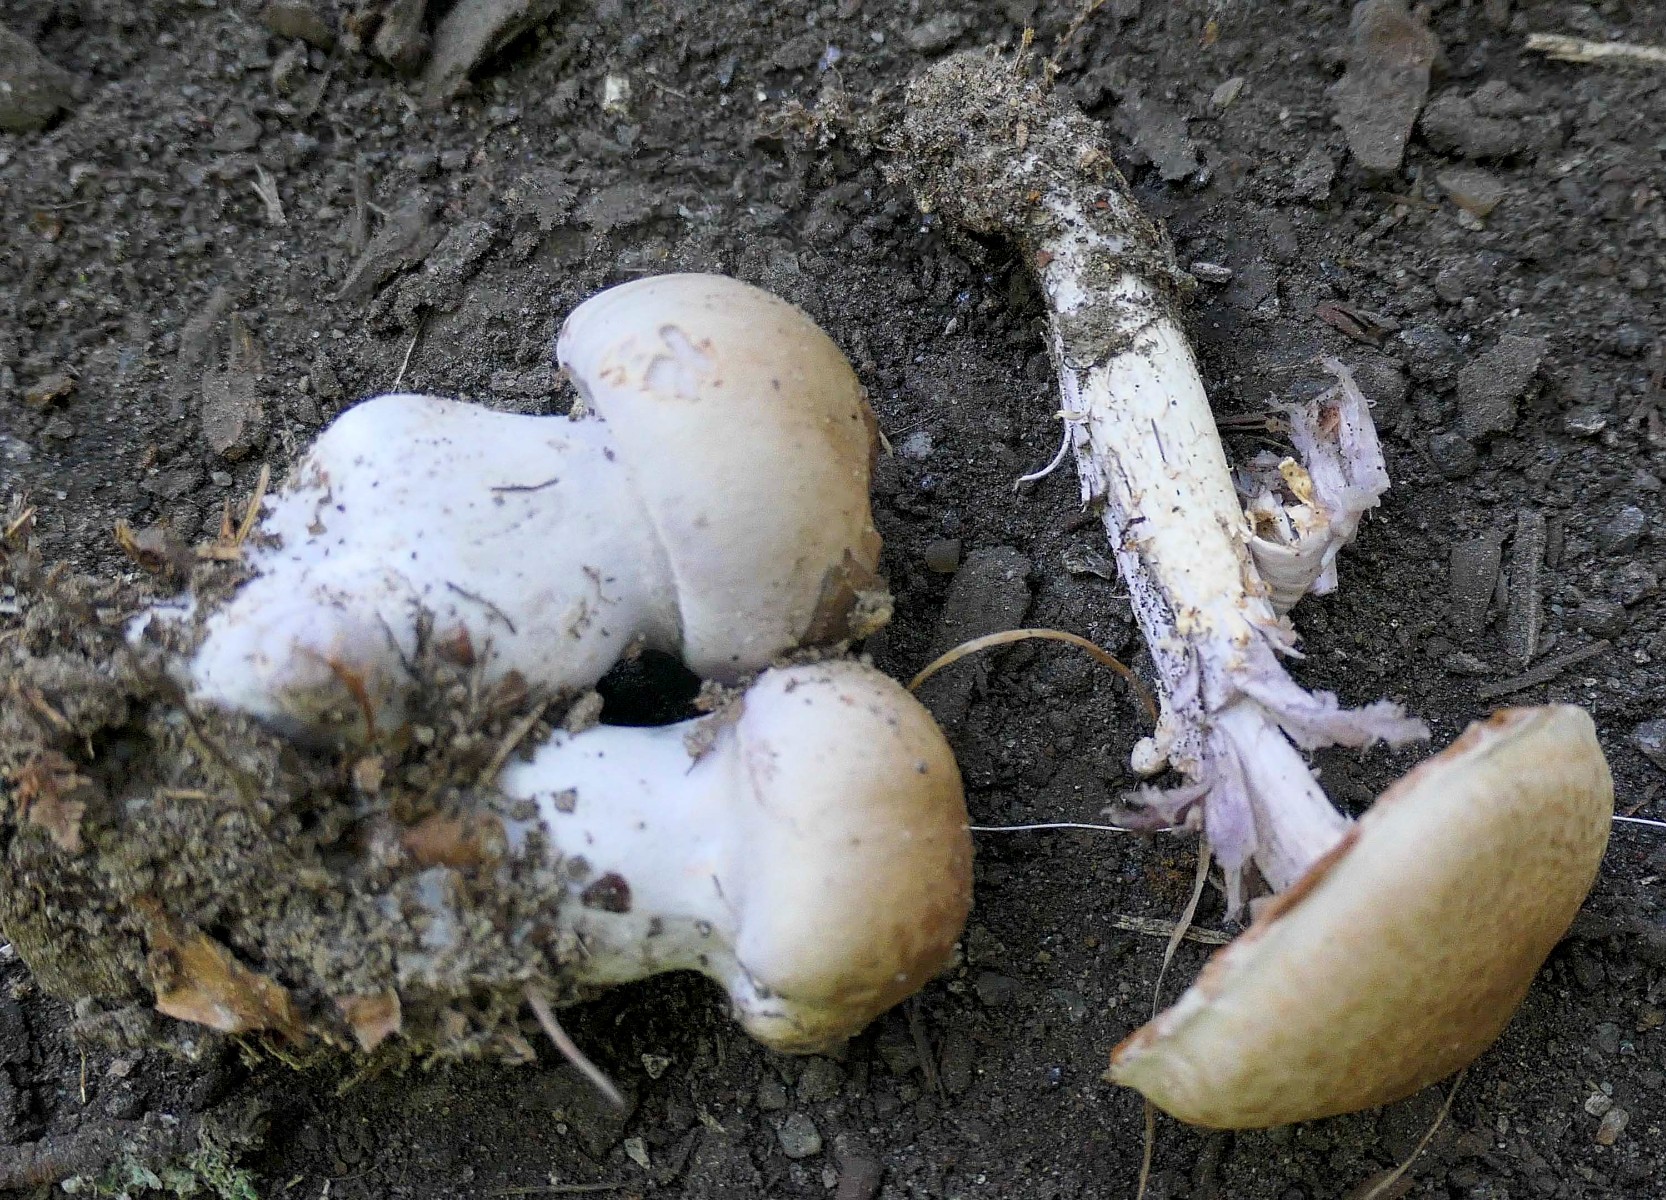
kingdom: Fungi
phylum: Basidiomycota
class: Agaricomycetes
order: Agaricales
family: Cortinariaceae
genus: Cortinarius
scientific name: Cortinarius
